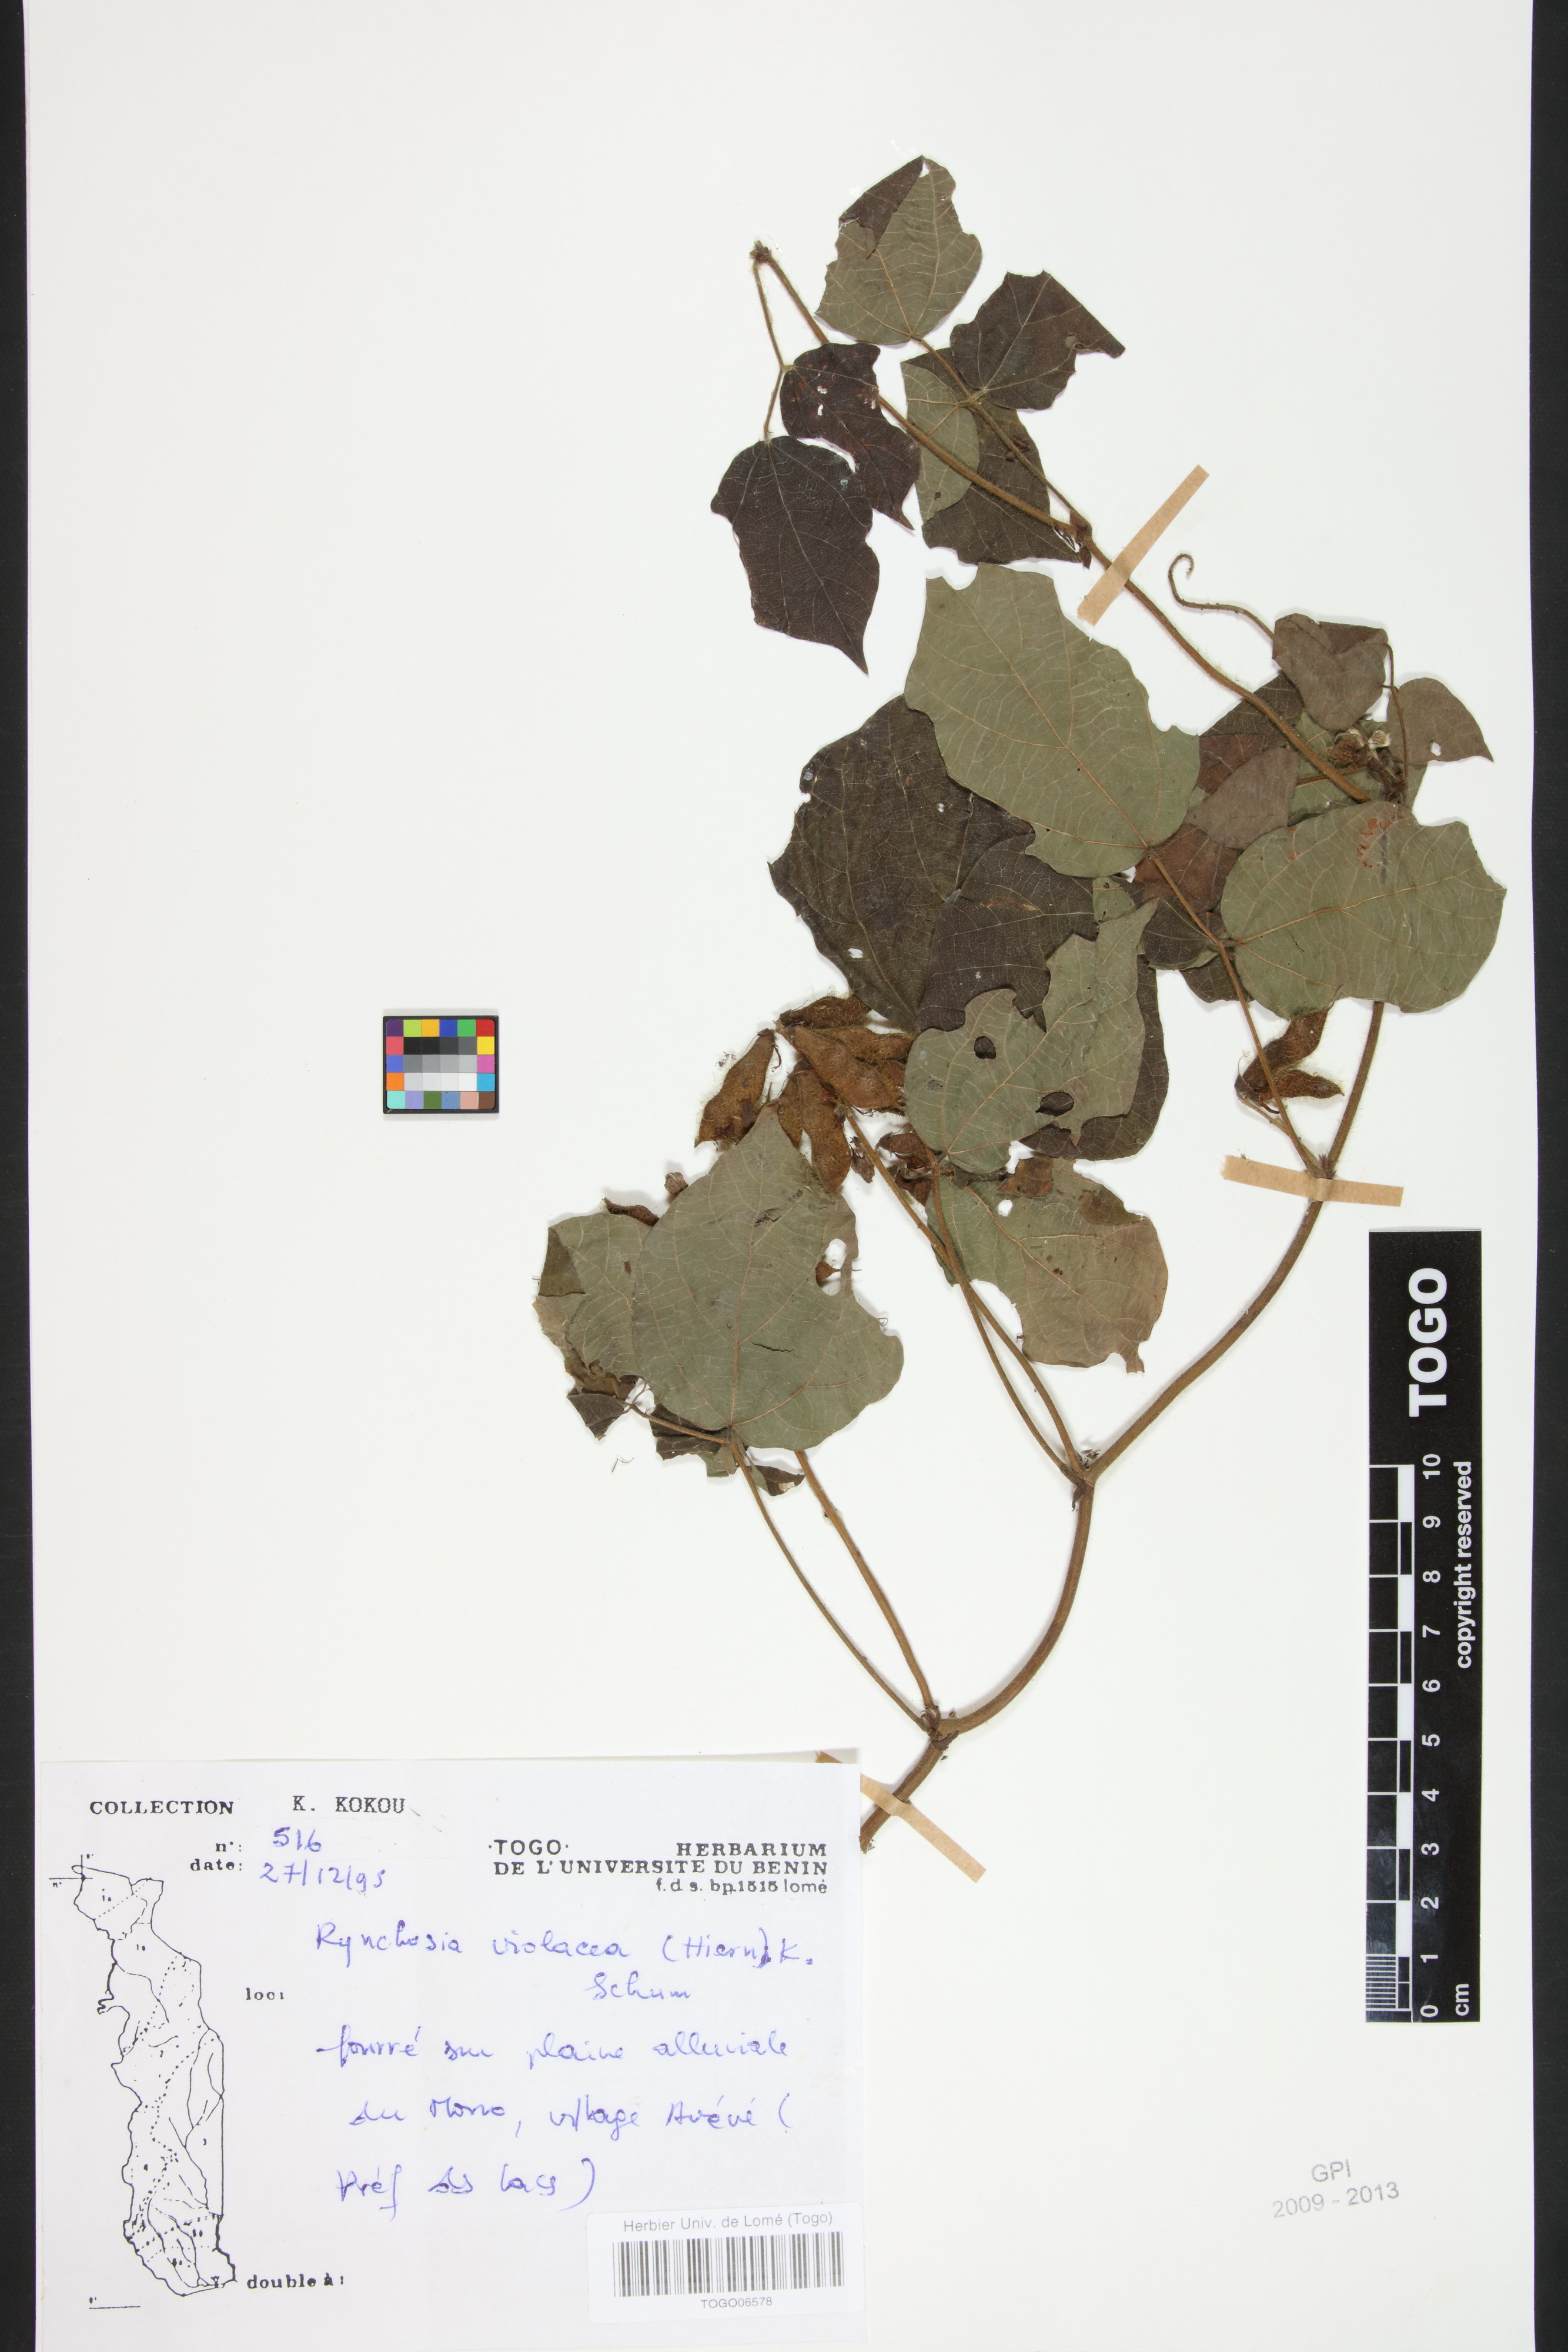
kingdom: Plantae
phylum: Tracheophyta
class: Magnoliopsida
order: Fabales
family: Fabaceae
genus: Rhynchosia
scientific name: Rhynchosia viscosa
